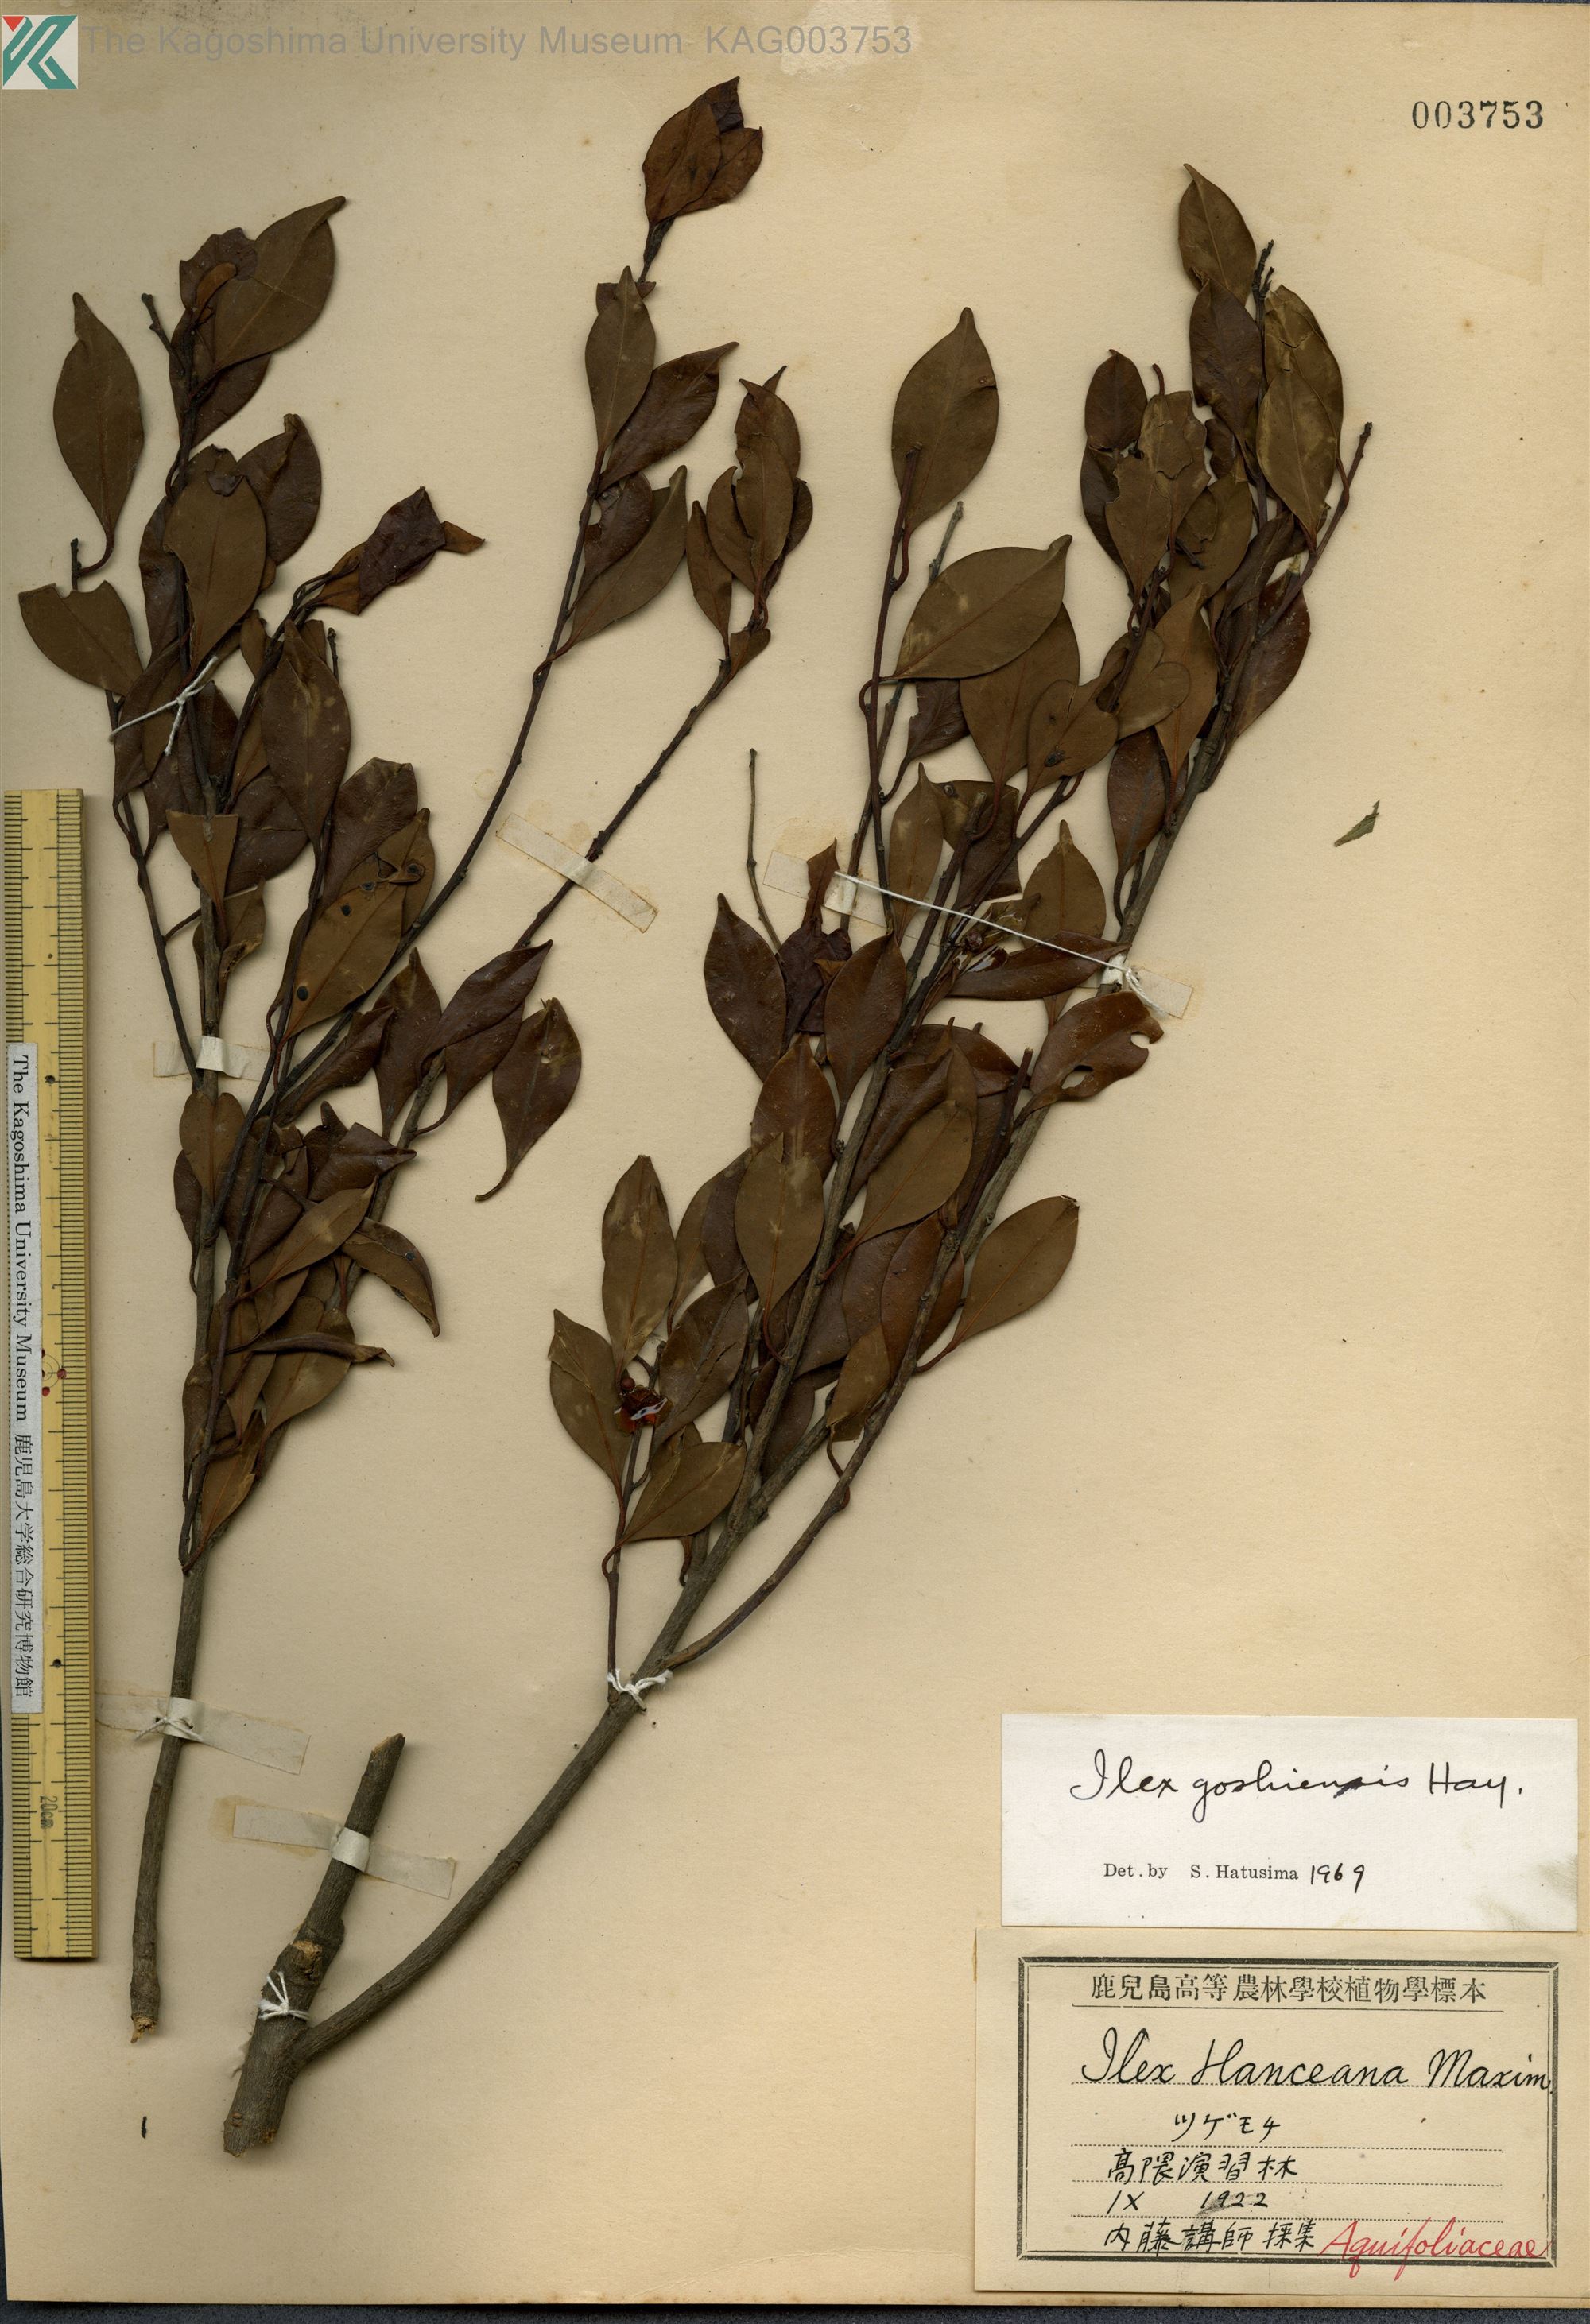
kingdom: Plantae
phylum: Tracheophyta
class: Magnoliopsida
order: Aquifoliales
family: Aquifoliaceae
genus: Ilex
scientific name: Ilex goshiensis
